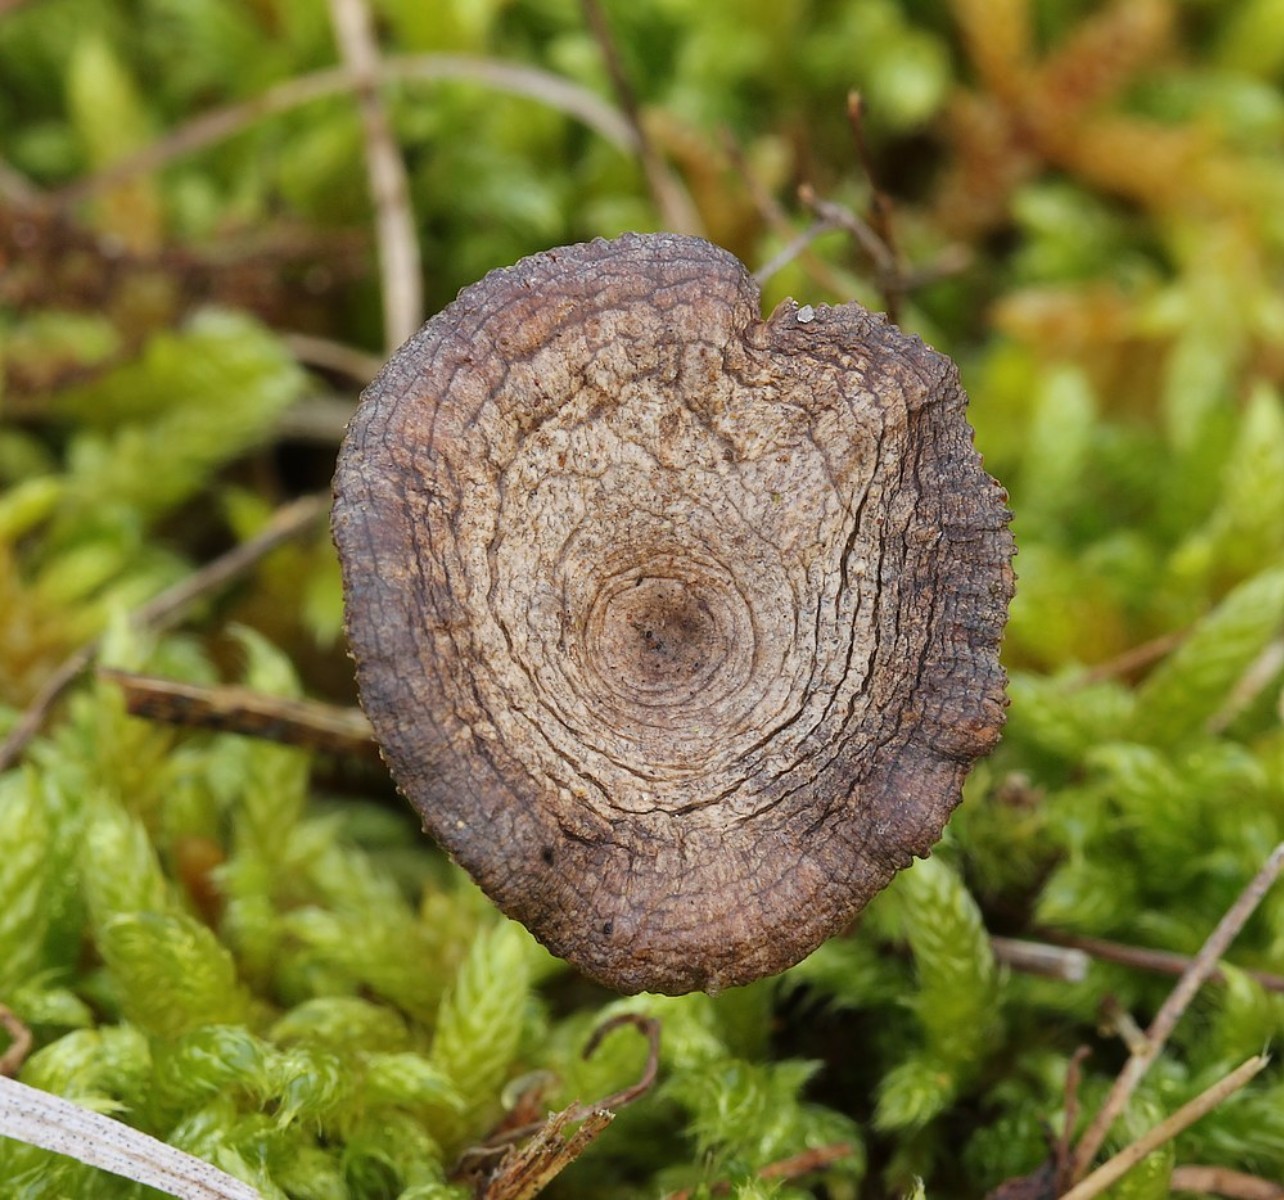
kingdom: Fungi
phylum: Basidiomycota
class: Agaricomycetes
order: Agaricales
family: Entolomataceae
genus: Clitopilus
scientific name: Clitopilus caelatus
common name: gråbrun troldhat
